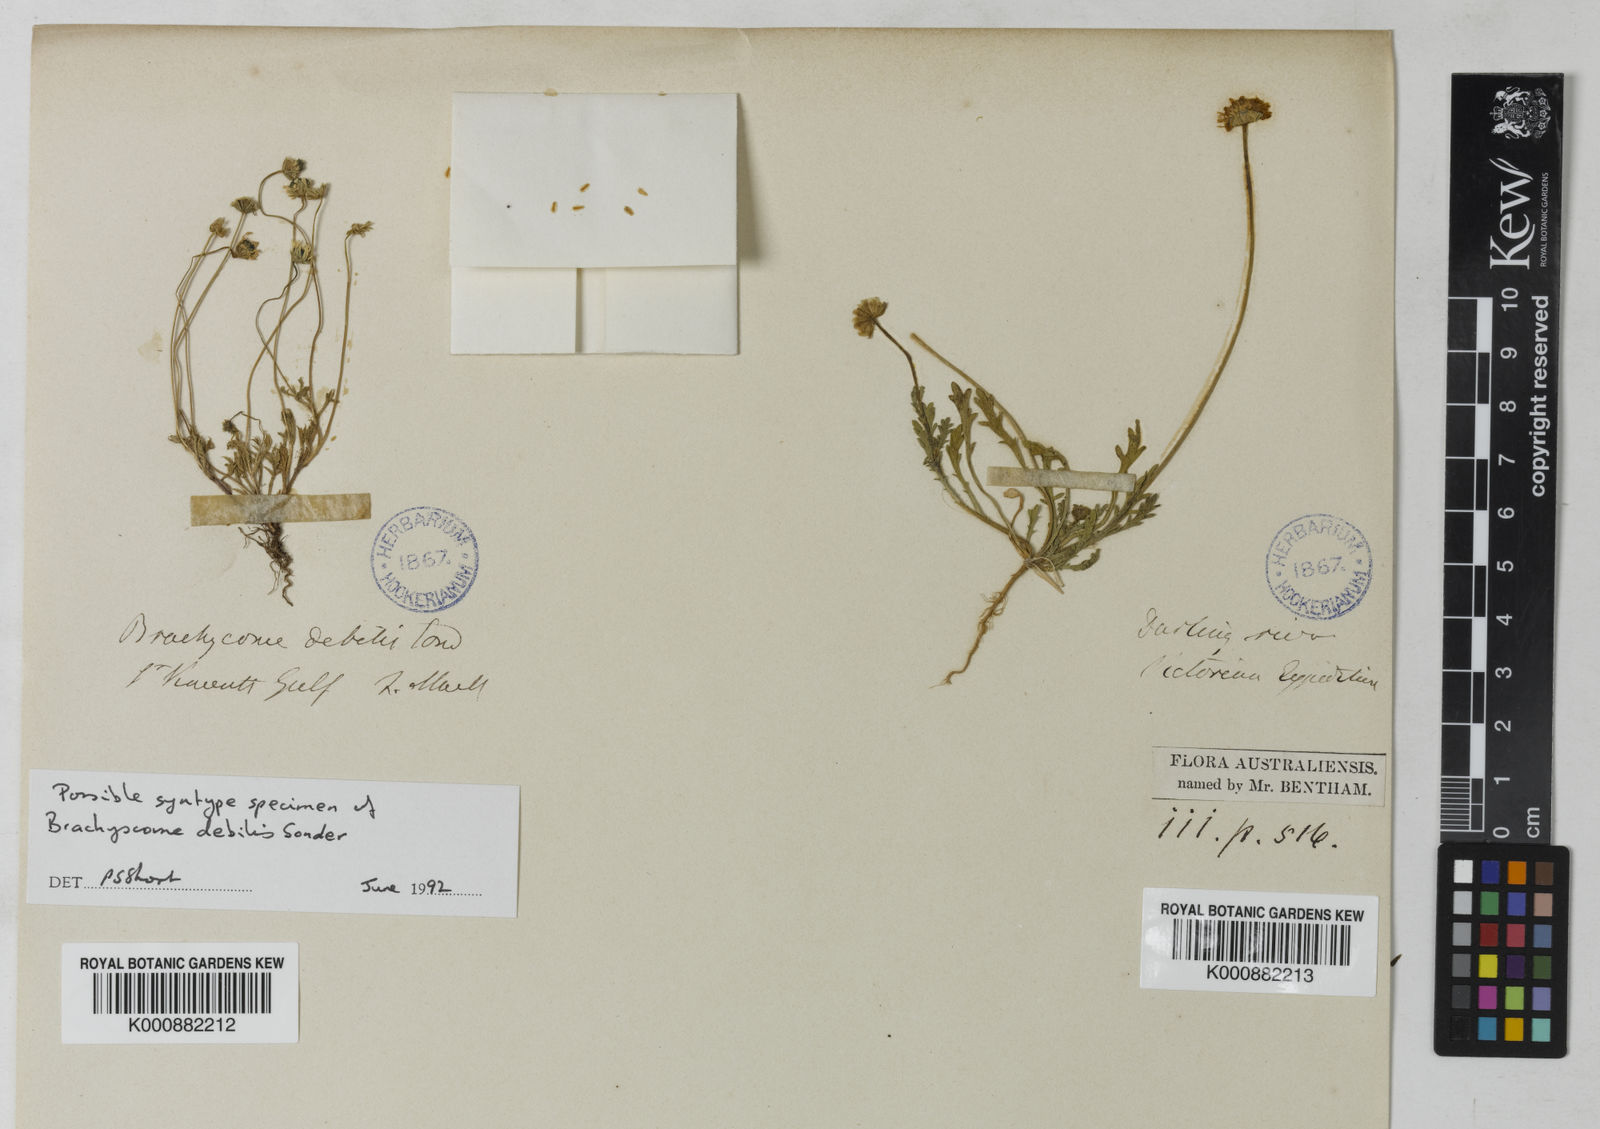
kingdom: Plantae
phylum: Tracheophyta
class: Magnoliopsida
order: Asterales
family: Asteraceae
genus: Brachyscome
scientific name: Brachyscome debilis
